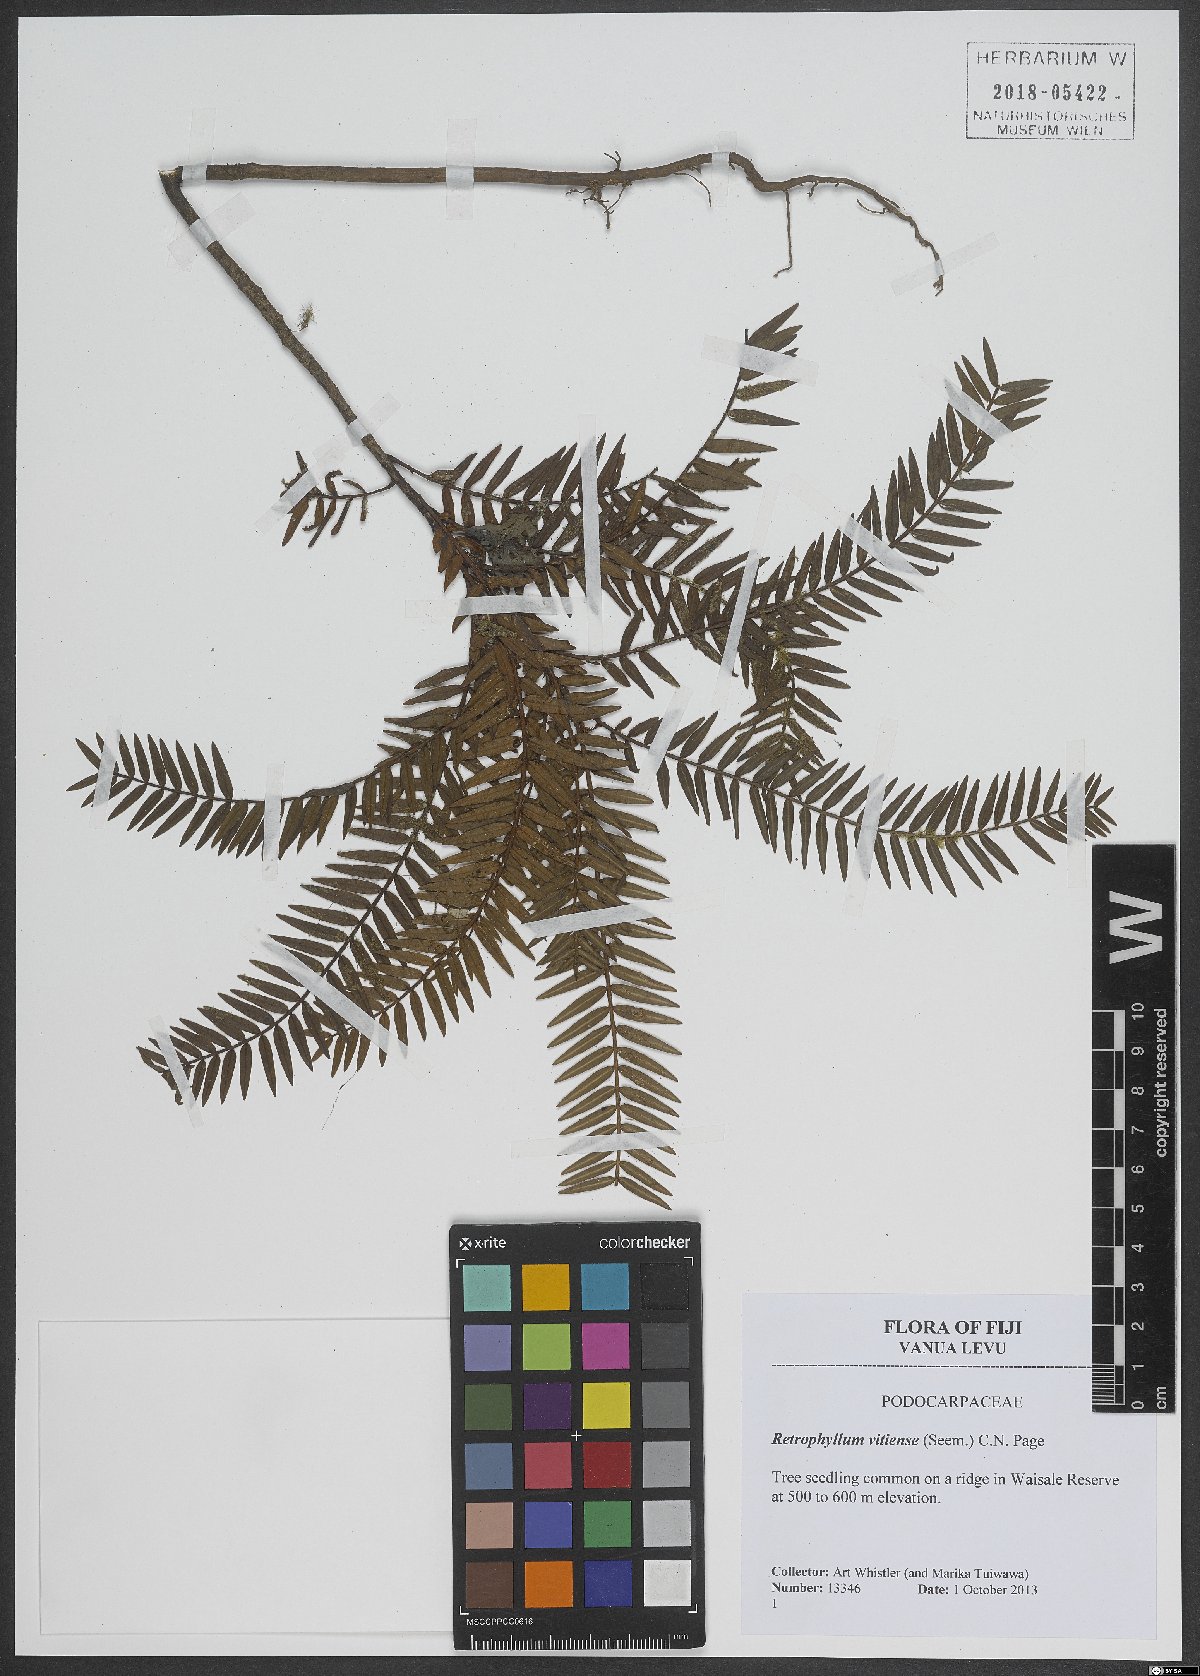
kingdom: Plantae
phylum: Tracheophyta
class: Pinopsida
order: Pinales
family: Podocarpaceae
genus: Retrophyllum
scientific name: Retrophyllum vitiense
